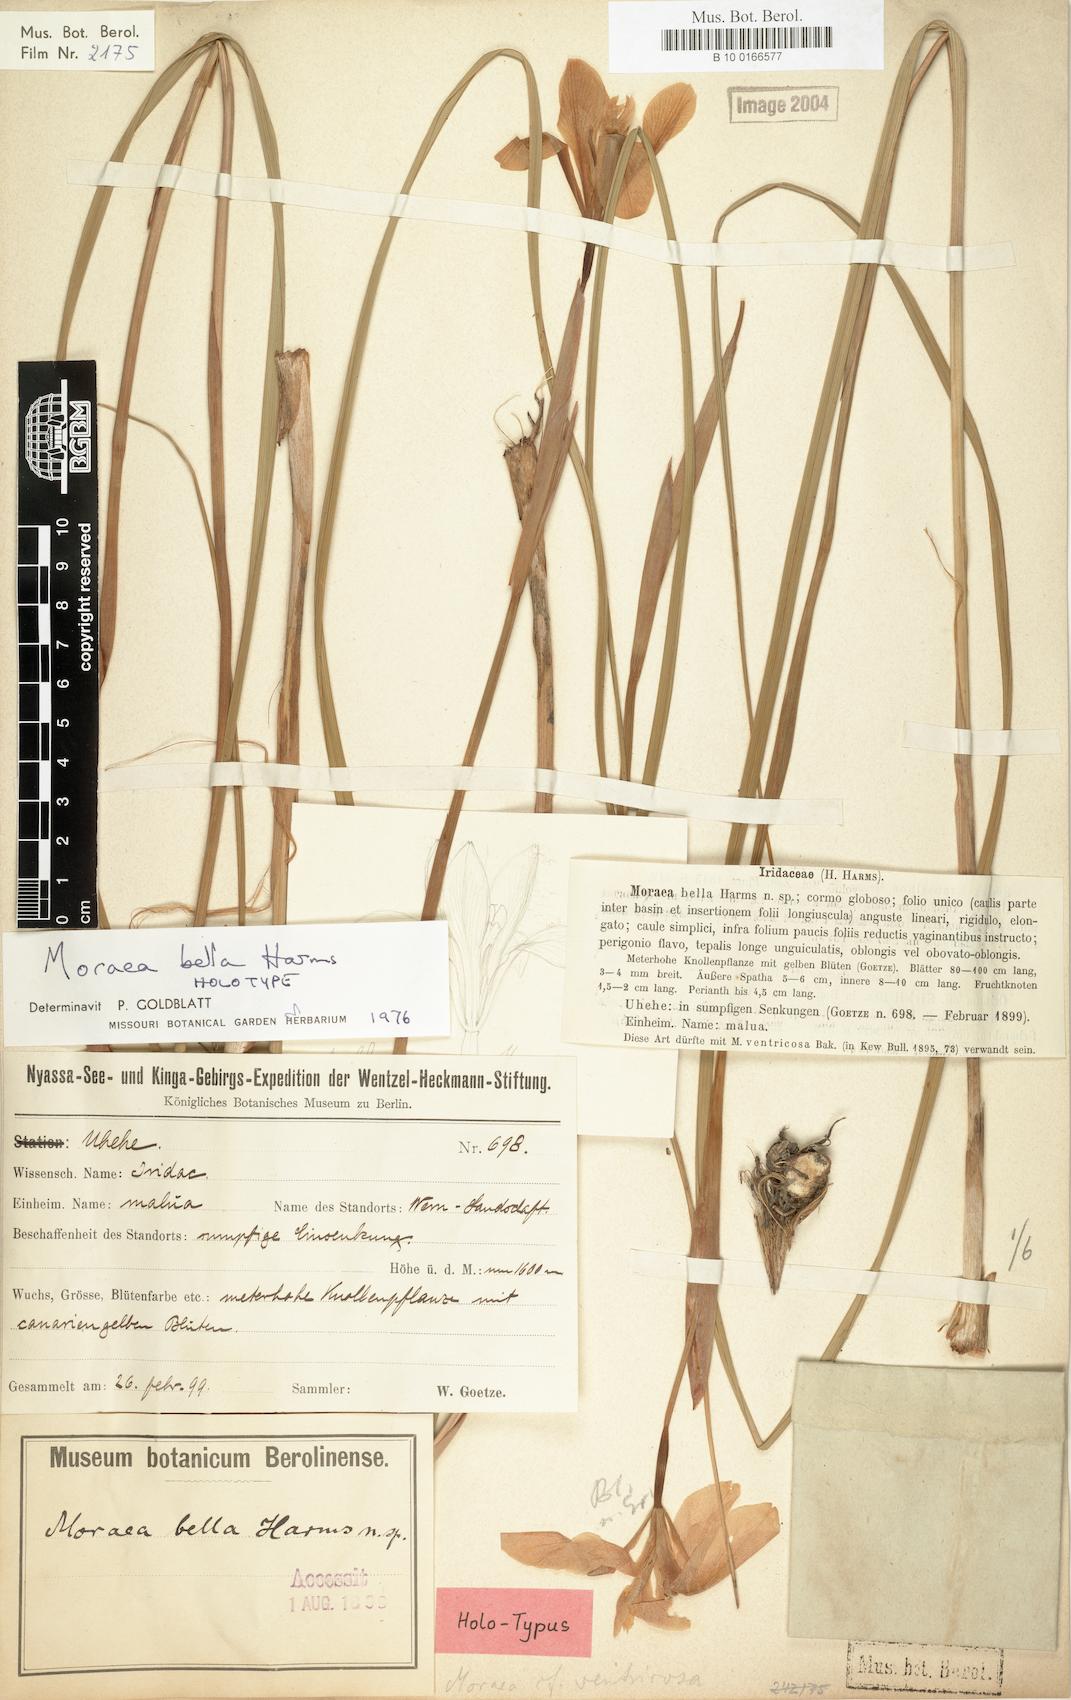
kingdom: Plantae
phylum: Tracheophyta
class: Liliopsida
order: Asparagales
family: Iridaceae
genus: Moraea
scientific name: Moraea bella
